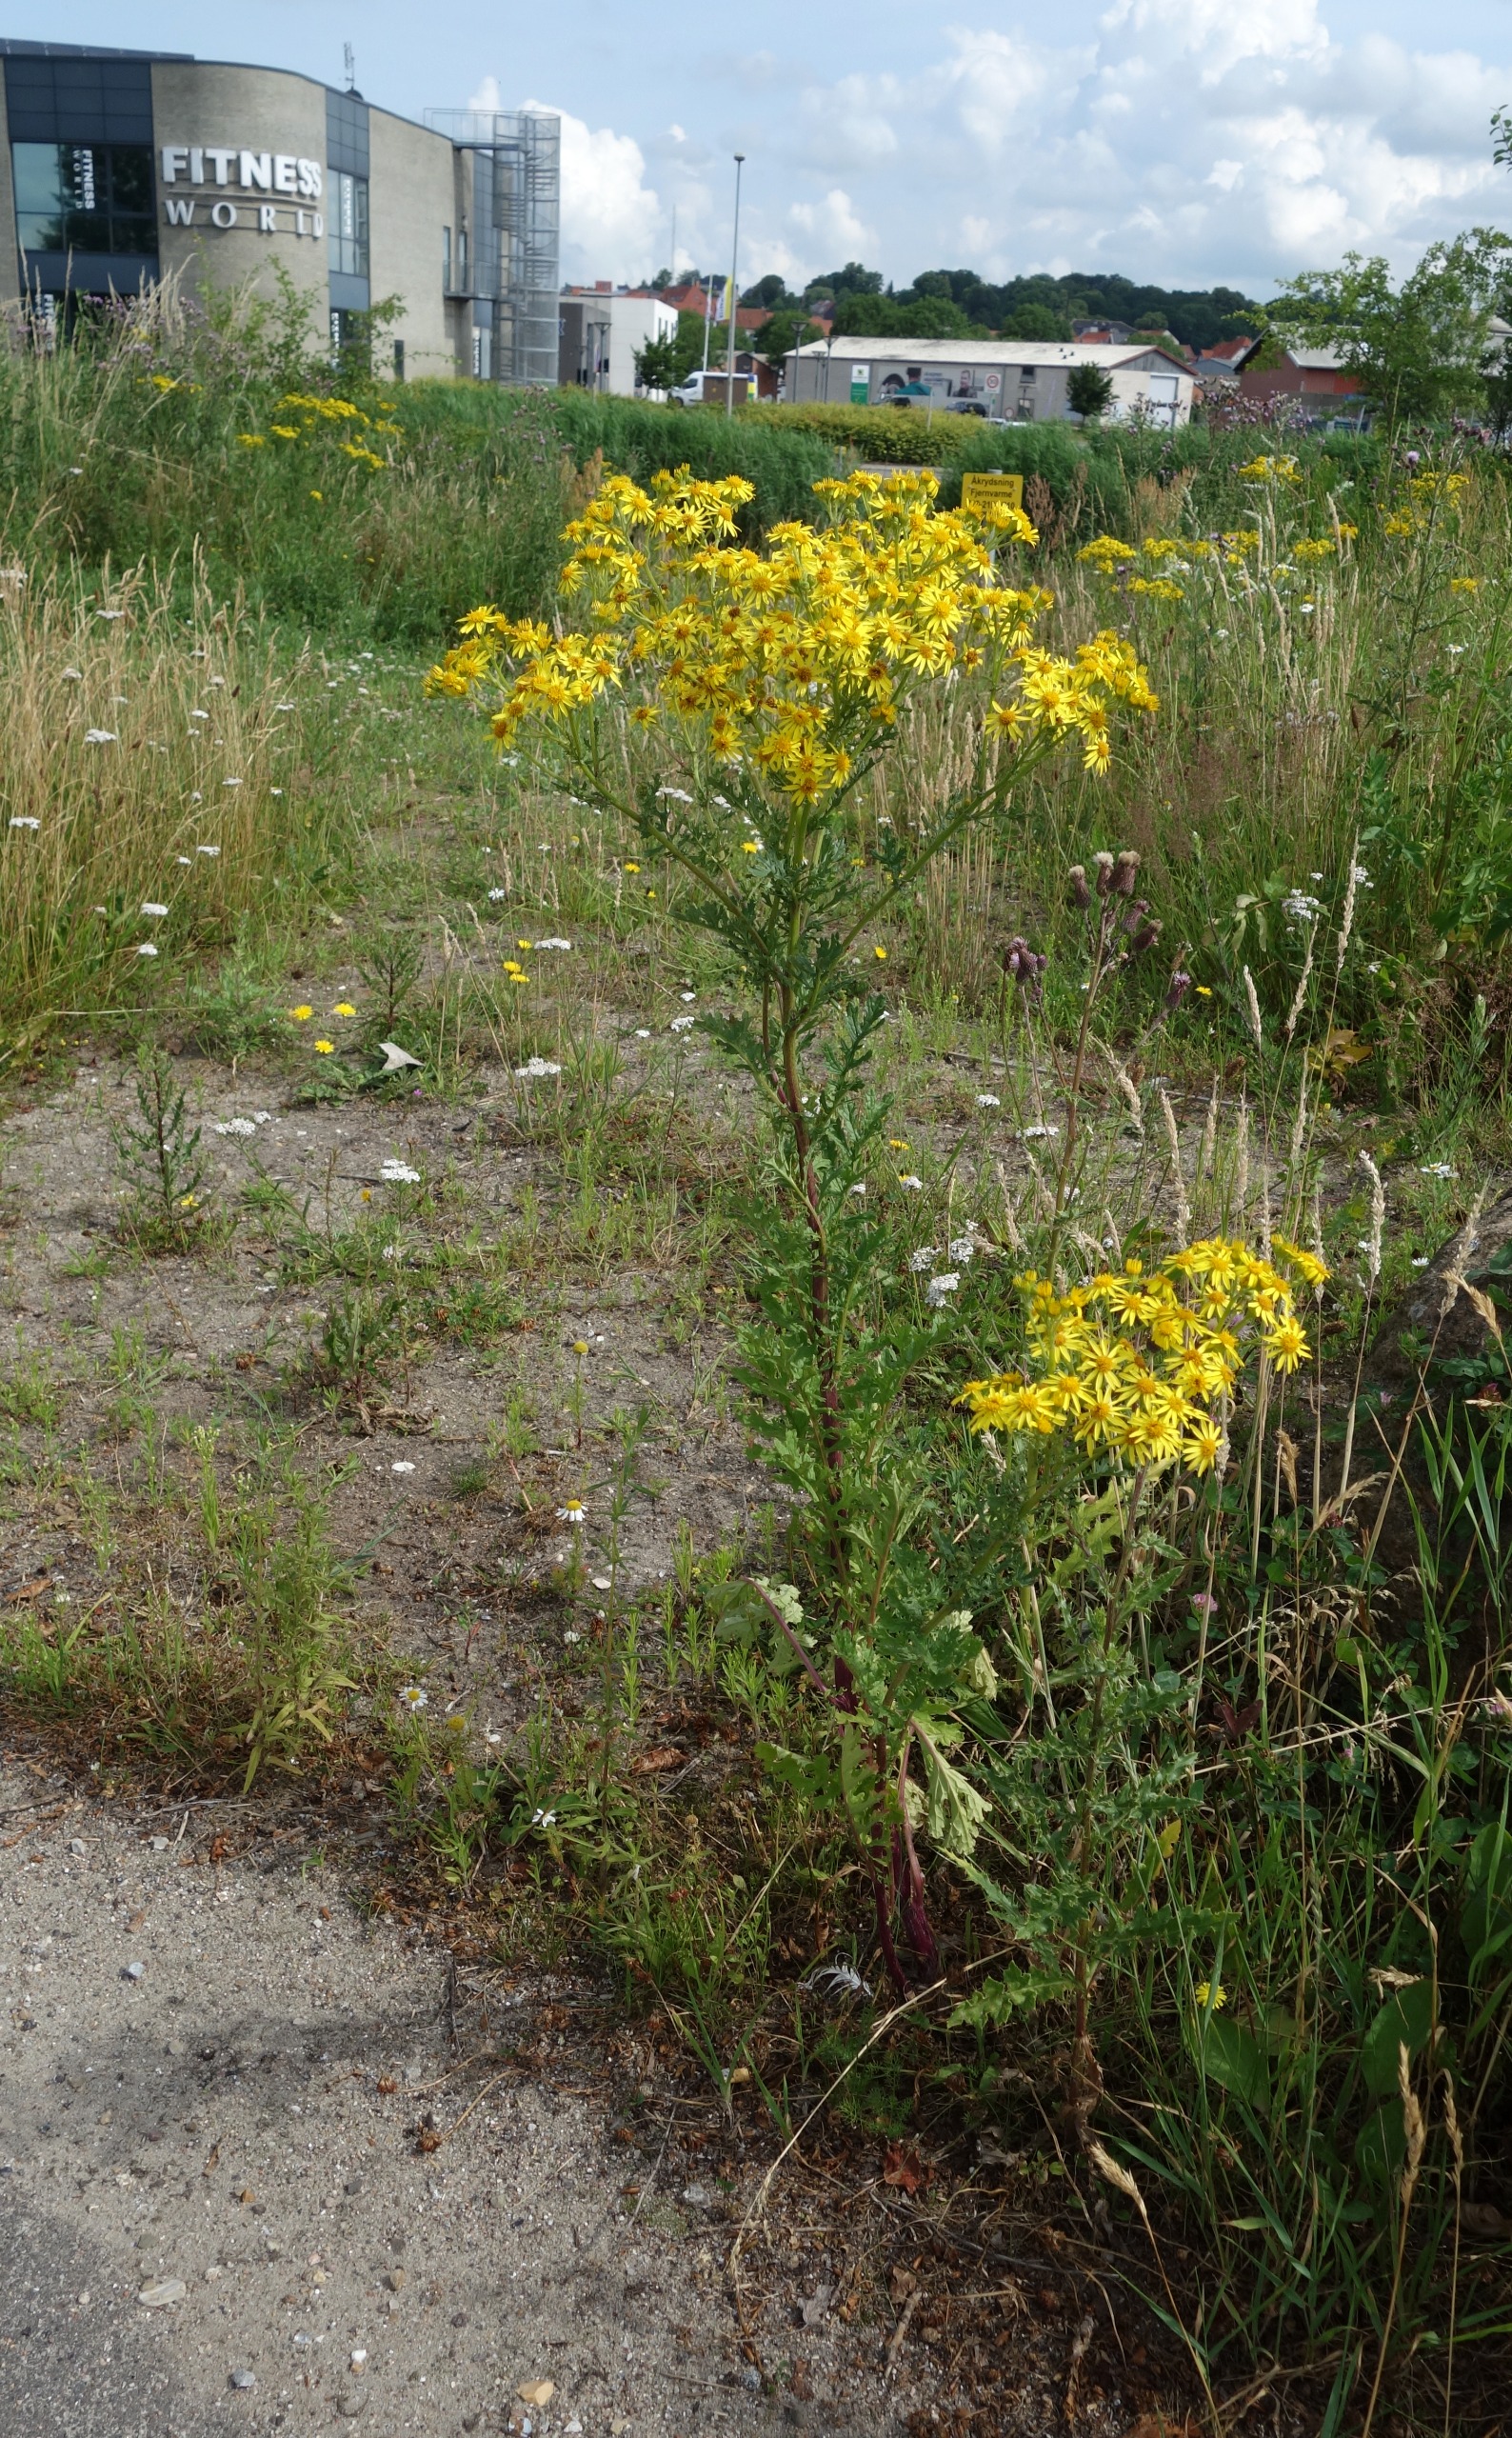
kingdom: Plantae
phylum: Tracheophyta
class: Magnoliopsida
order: Asterales
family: Asteraceae
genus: Jacobaea
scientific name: Jacobaea vulgaris
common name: Eng-brandbæger
